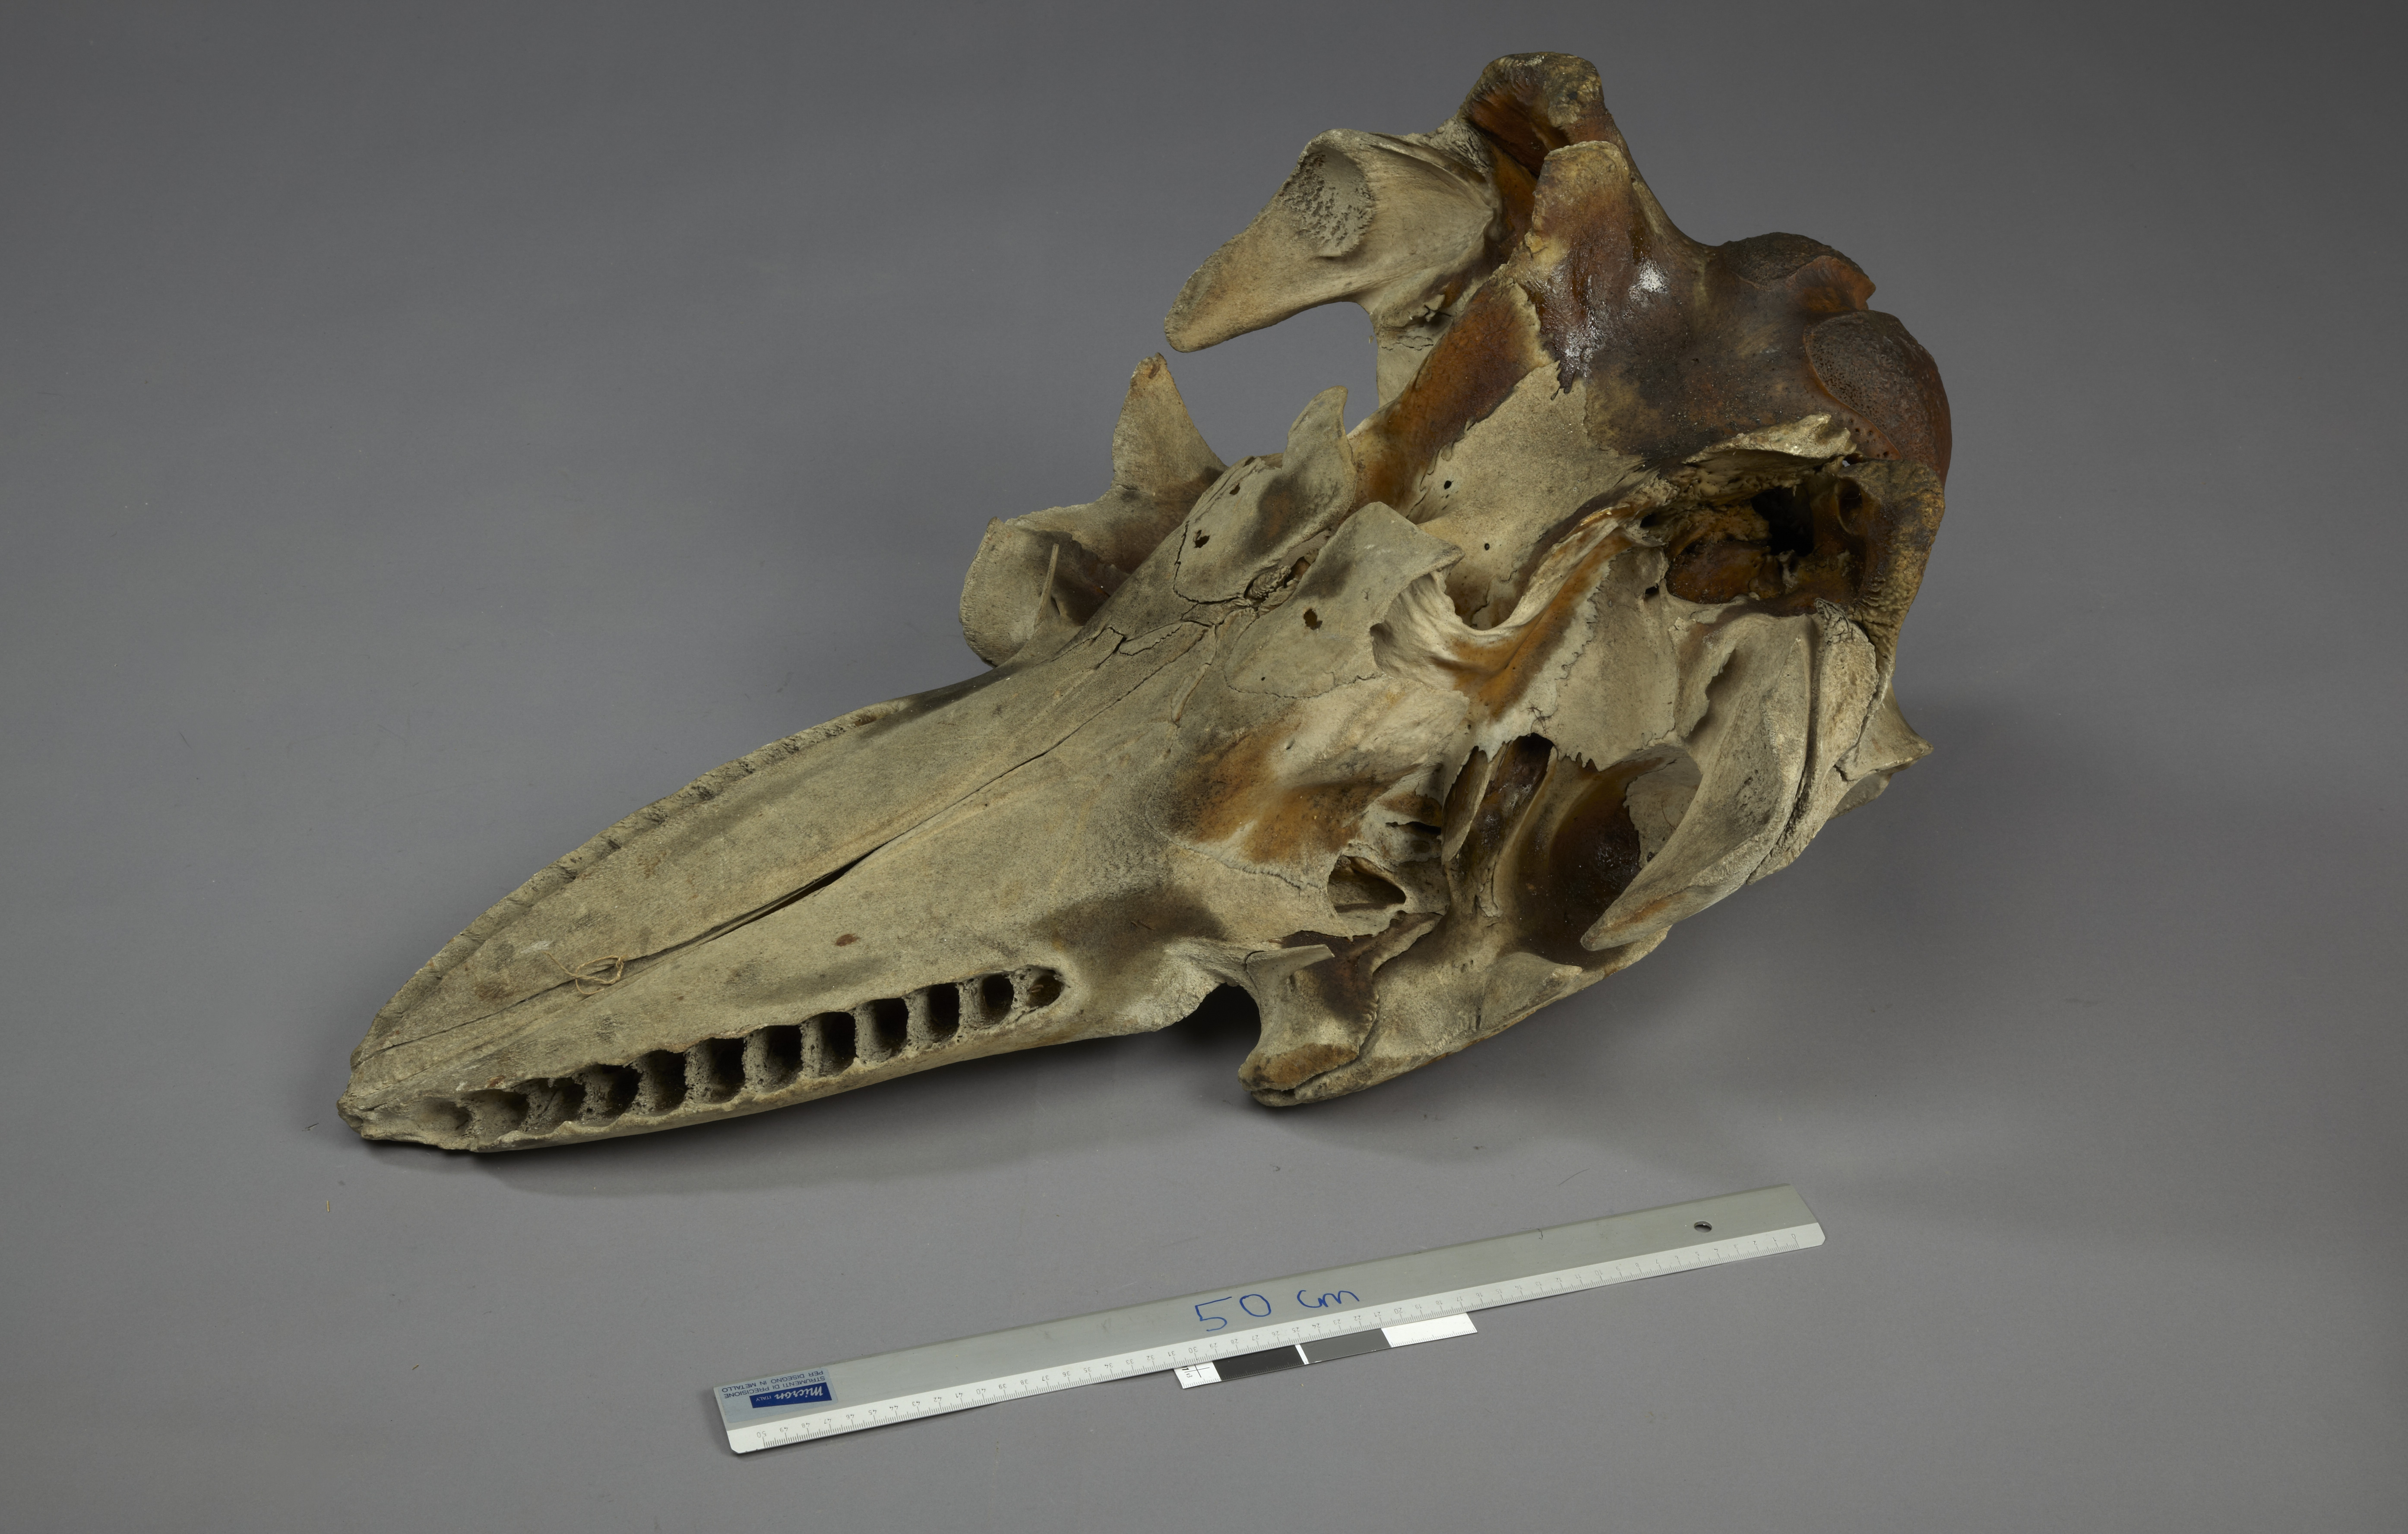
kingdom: Animalia
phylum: Chordata
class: Mammalia
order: Cetacea
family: Delphinidae
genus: Orcinus
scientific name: Orcinus orca
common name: Killer whale
